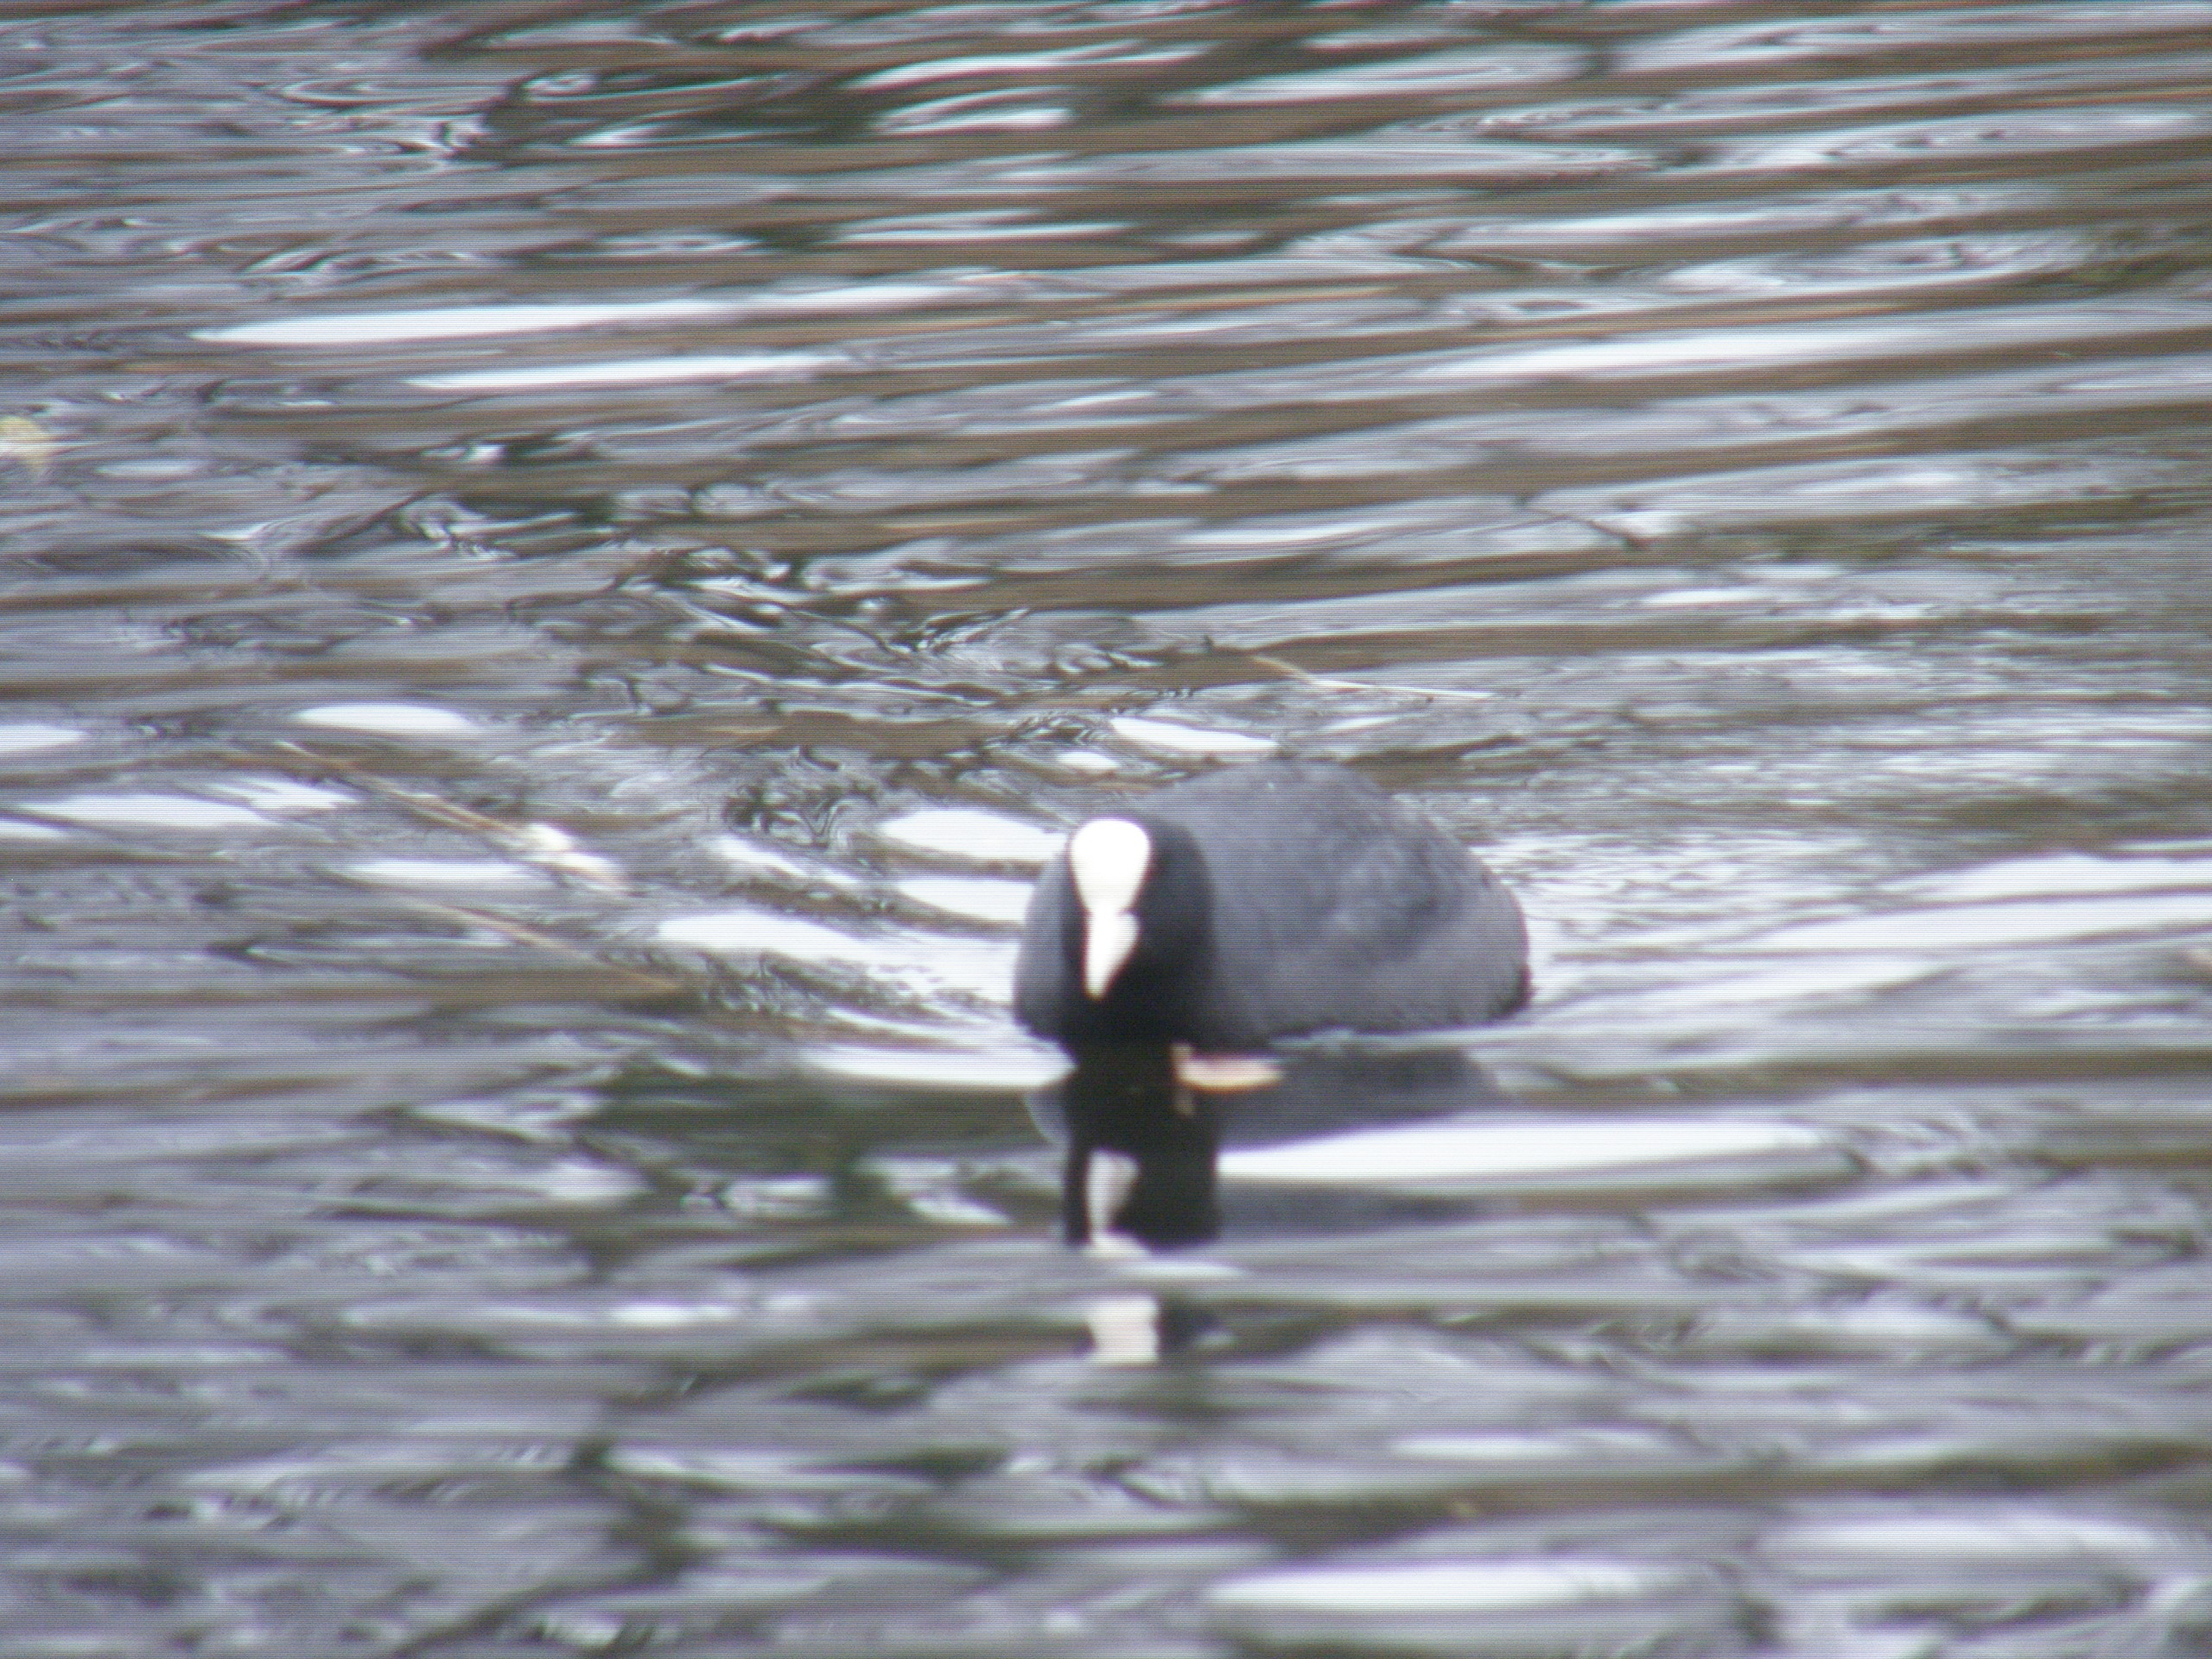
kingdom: Animalia
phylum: Chordata
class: Aves
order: Gruiformes
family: Rallidae
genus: Fulica
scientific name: Fulica atra
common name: Blishøne
